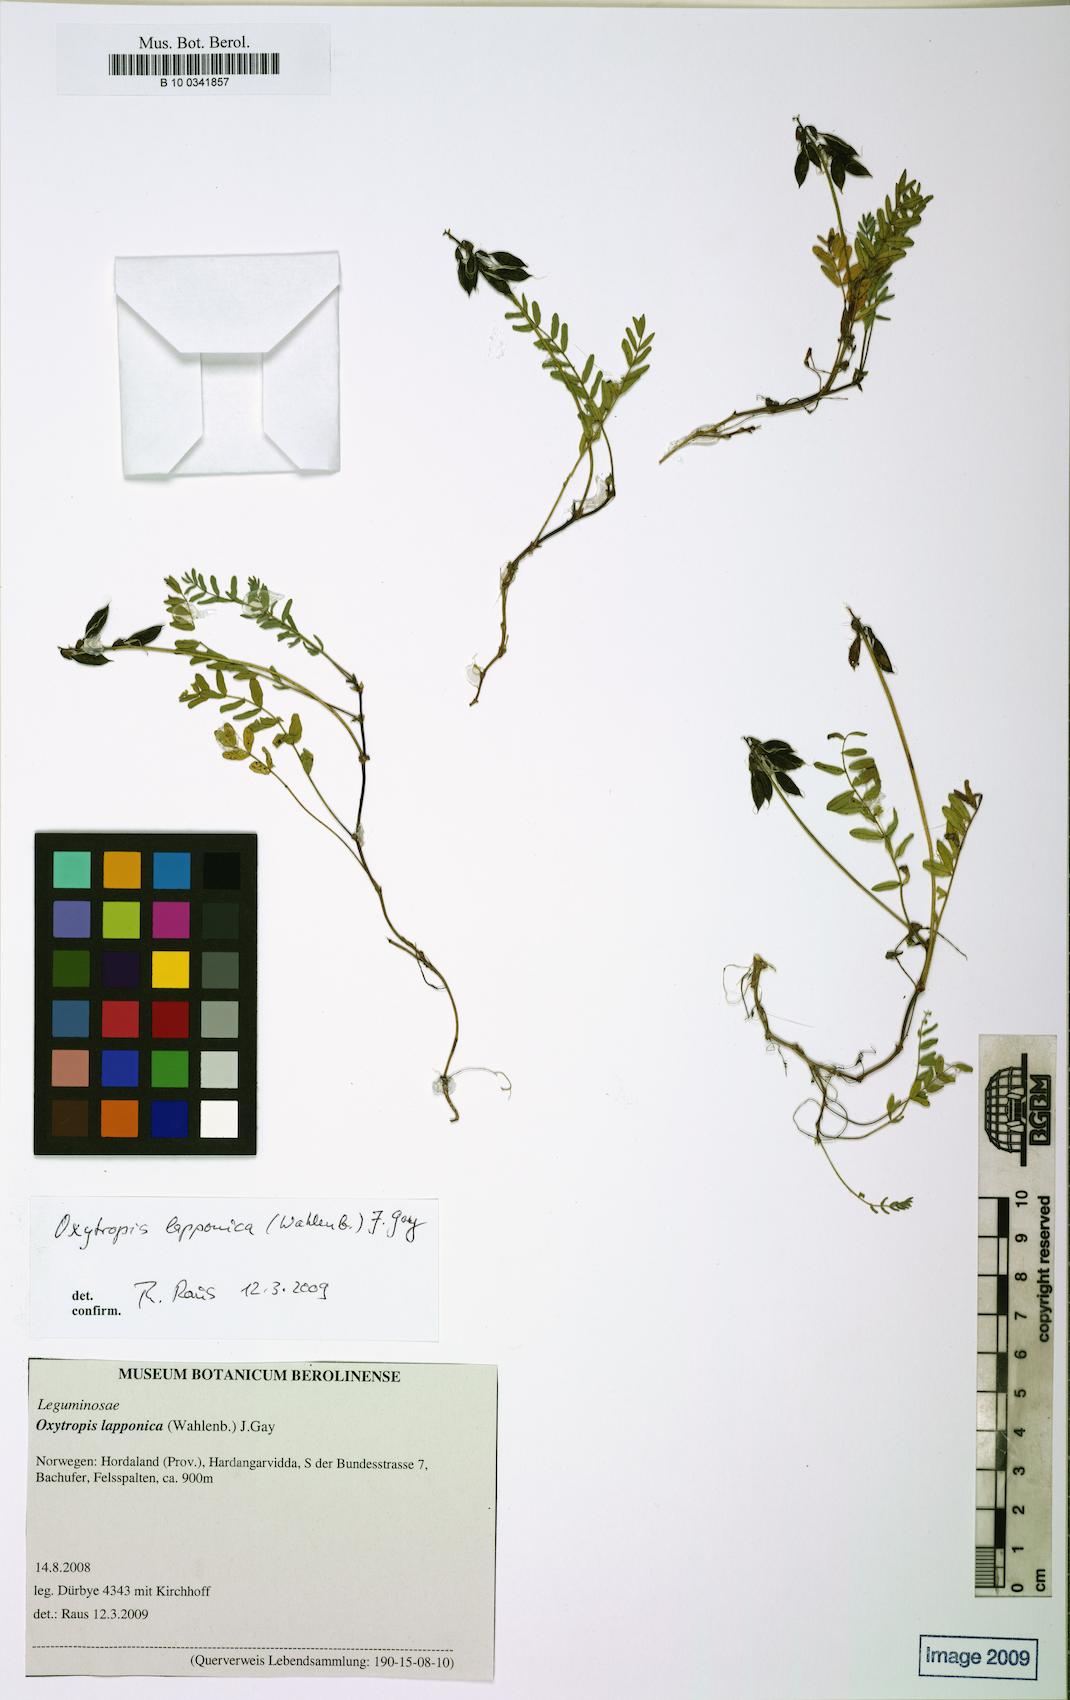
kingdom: Plantae
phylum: Tracheophyta
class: Magnoliopsida
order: Fabales
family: Fabaceae
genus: Oxytropis
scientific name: Oxytropis lapponica
